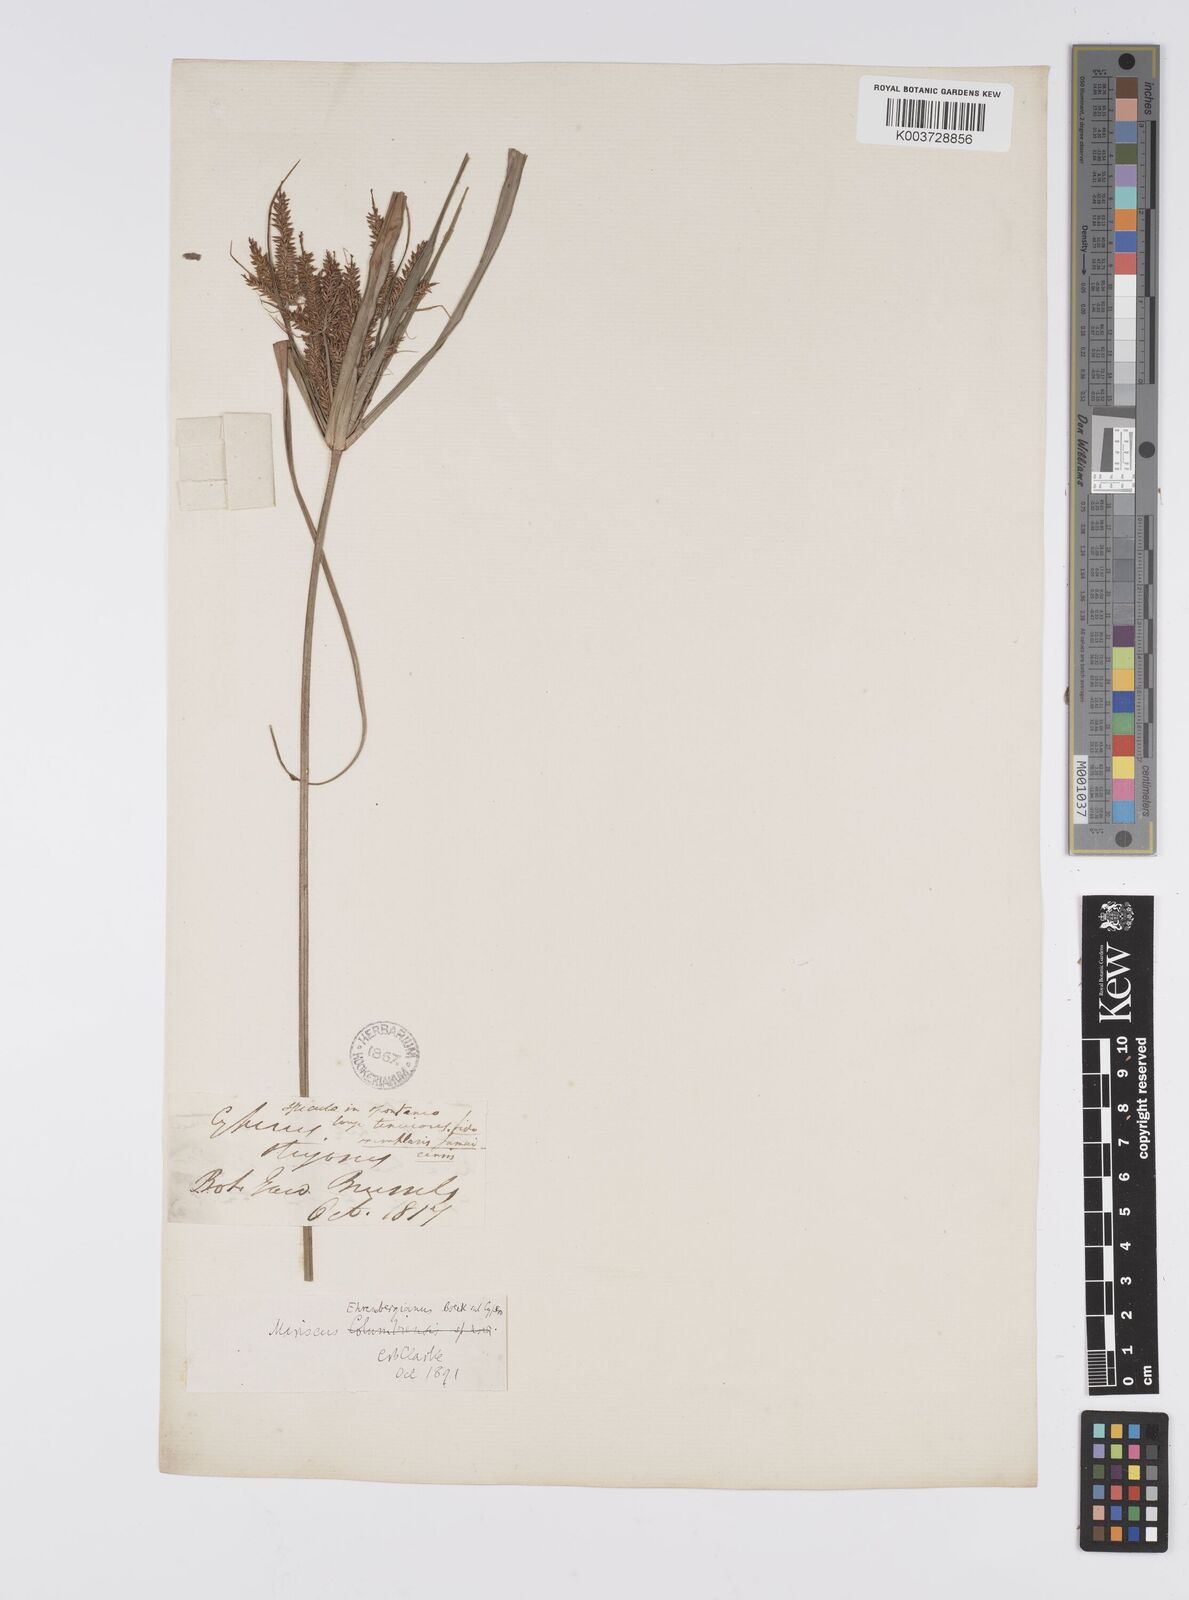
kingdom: Plantae
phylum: Tracheophyta
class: Liliopsida
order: Poales
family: Cyperaceae
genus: Cyperus
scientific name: Cyperus mutisii
